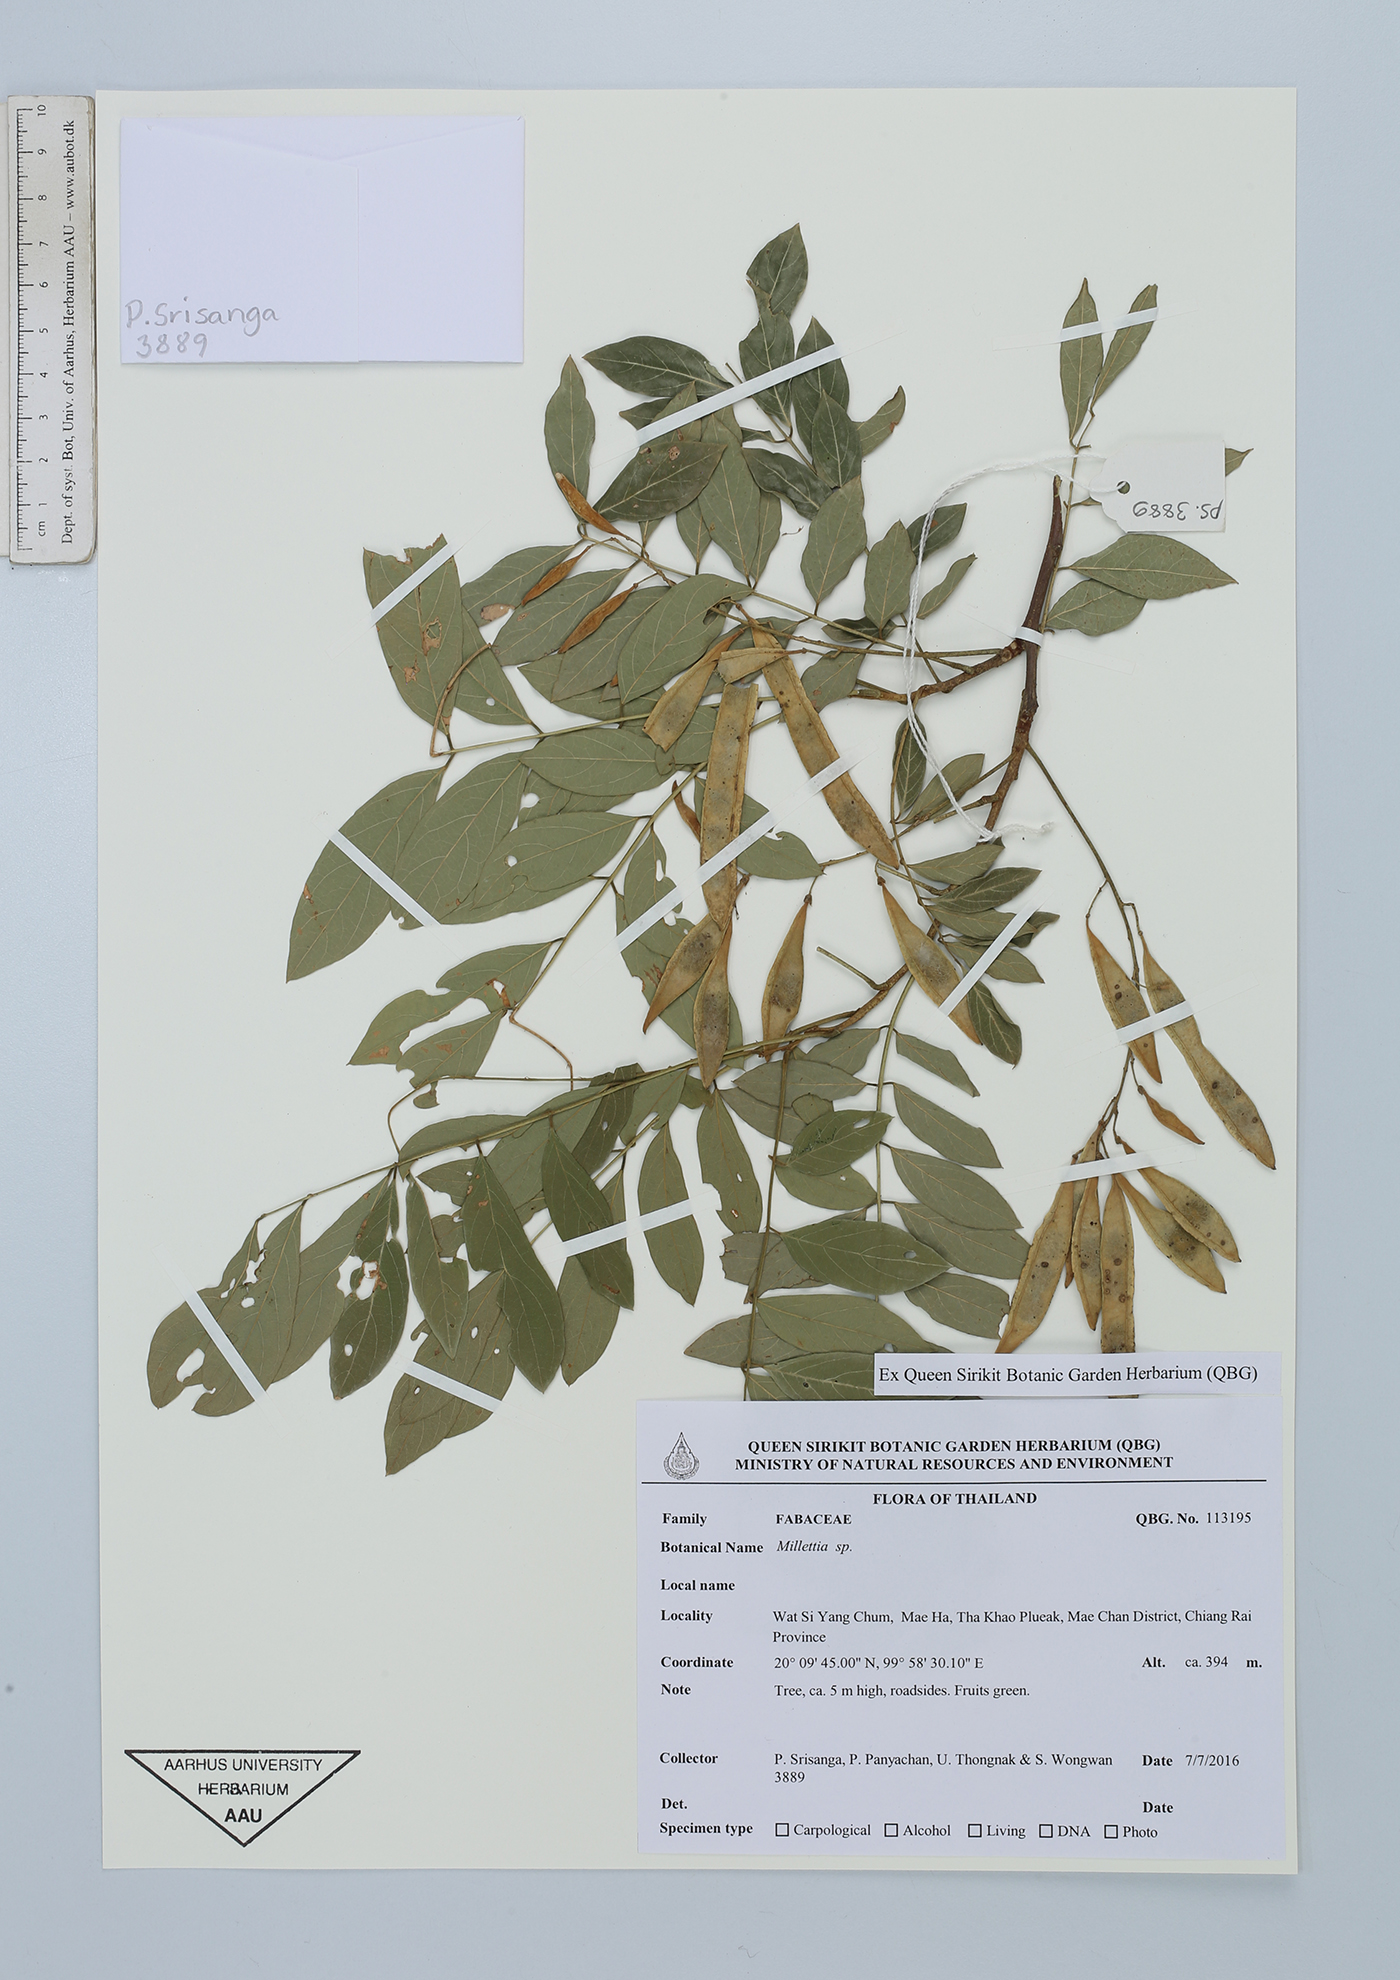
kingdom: Plantae
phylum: Tracheophyta
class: Magnoliopsida
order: Fabales
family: Fabaceae
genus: Millettia
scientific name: Millettia
